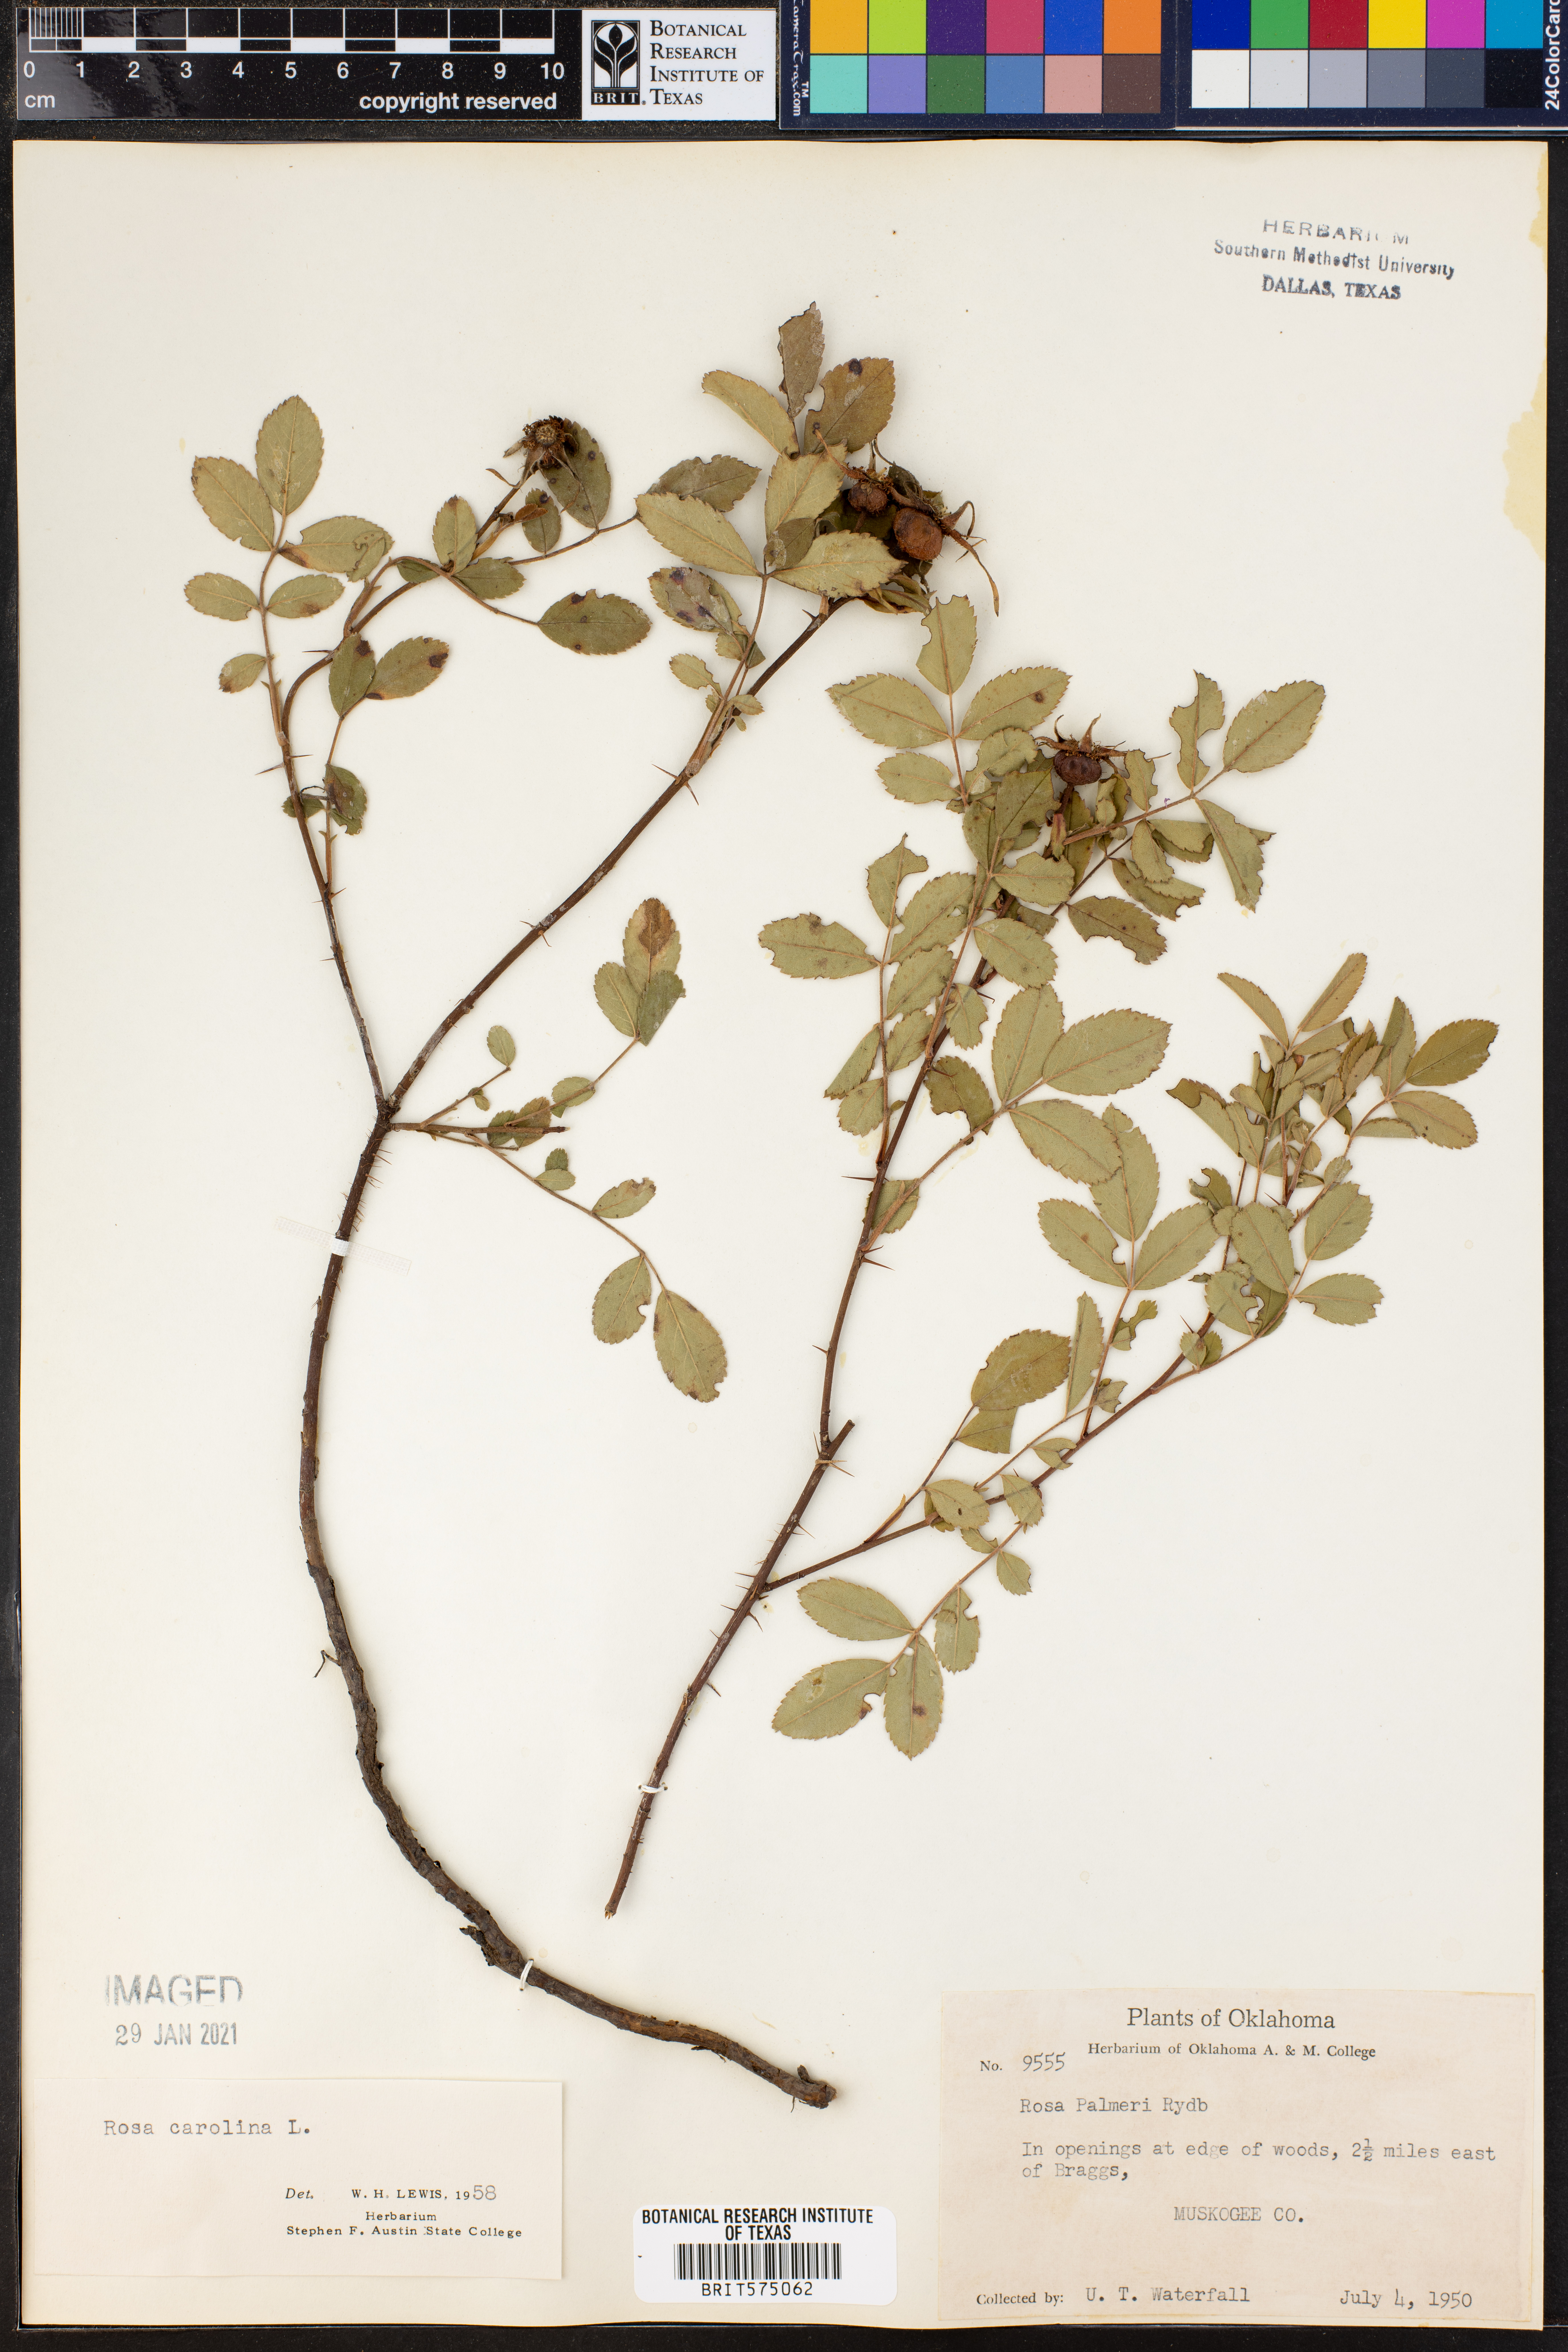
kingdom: Plantae
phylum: Tracheophyta
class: Magnoliopsida
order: Rosales
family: Rosaceae
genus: Rosa
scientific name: Rosa carolina
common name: Pasture rose
